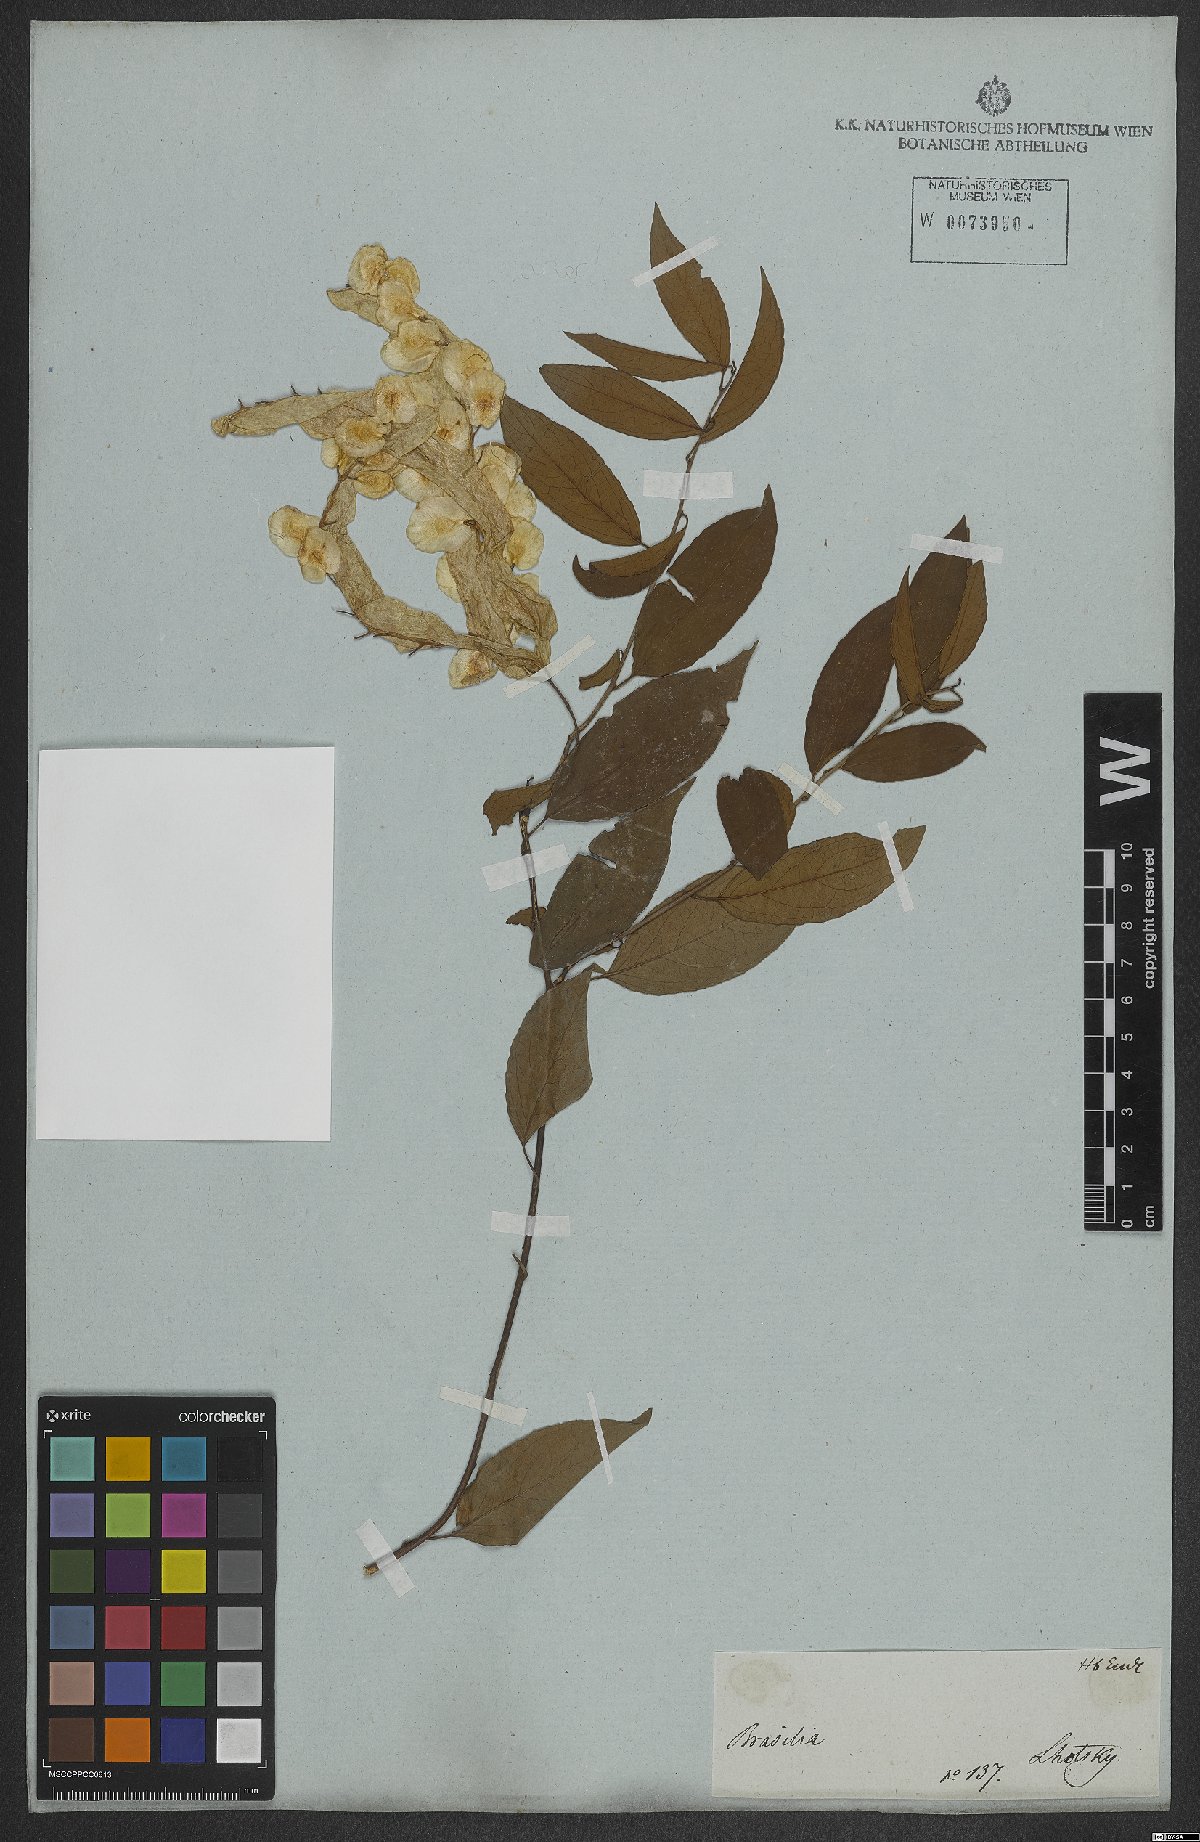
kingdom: Plantae
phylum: Tracheophyta
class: Magnoliopsida
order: Malpighiales
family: Violaceae
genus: Anchietea
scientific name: Anchietea pyrifolia
